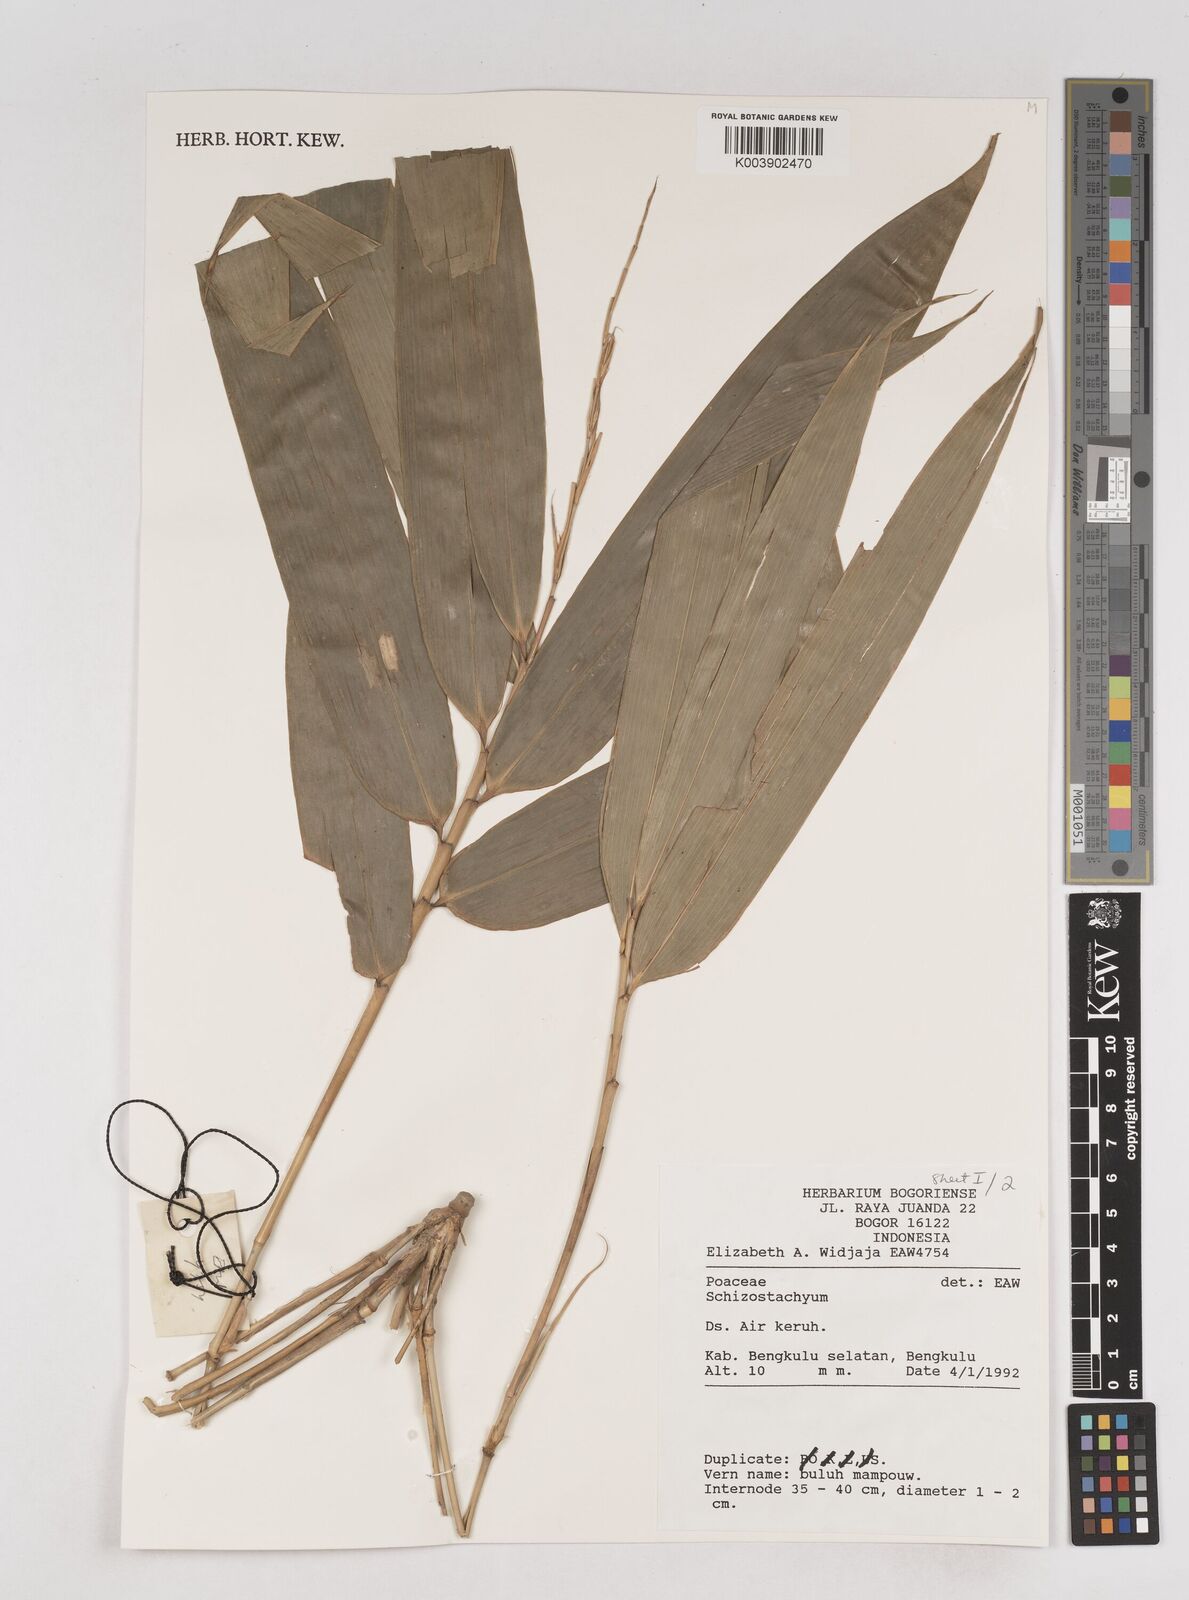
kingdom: Plantae
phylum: Tracheophyta
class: Liliopsida
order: Poales
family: Poaceae
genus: Schizostachyum
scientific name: Schizostachyum
